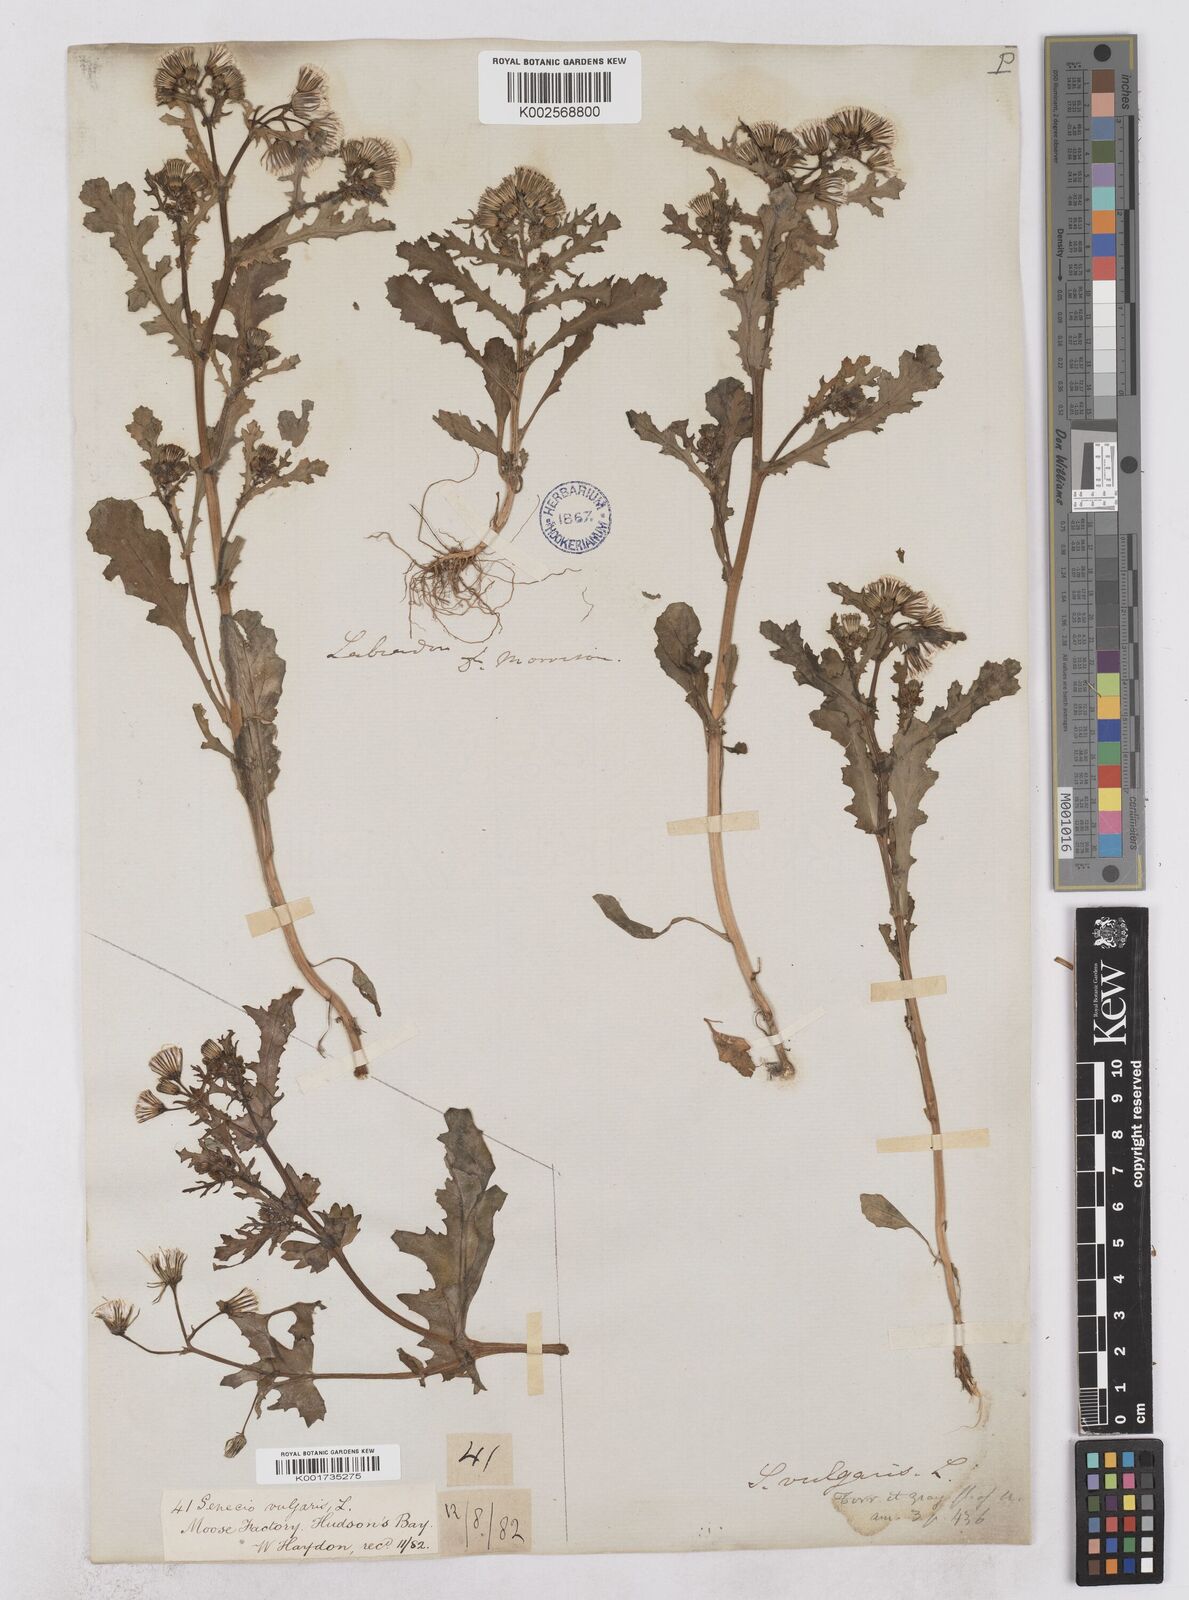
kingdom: Plantae
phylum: Tracheophyta
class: Magnoliopsida
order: Asterales
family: Asteraceae
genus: Senecio
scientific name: Senecio vulgaris
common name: Old-man-in-the-spring
